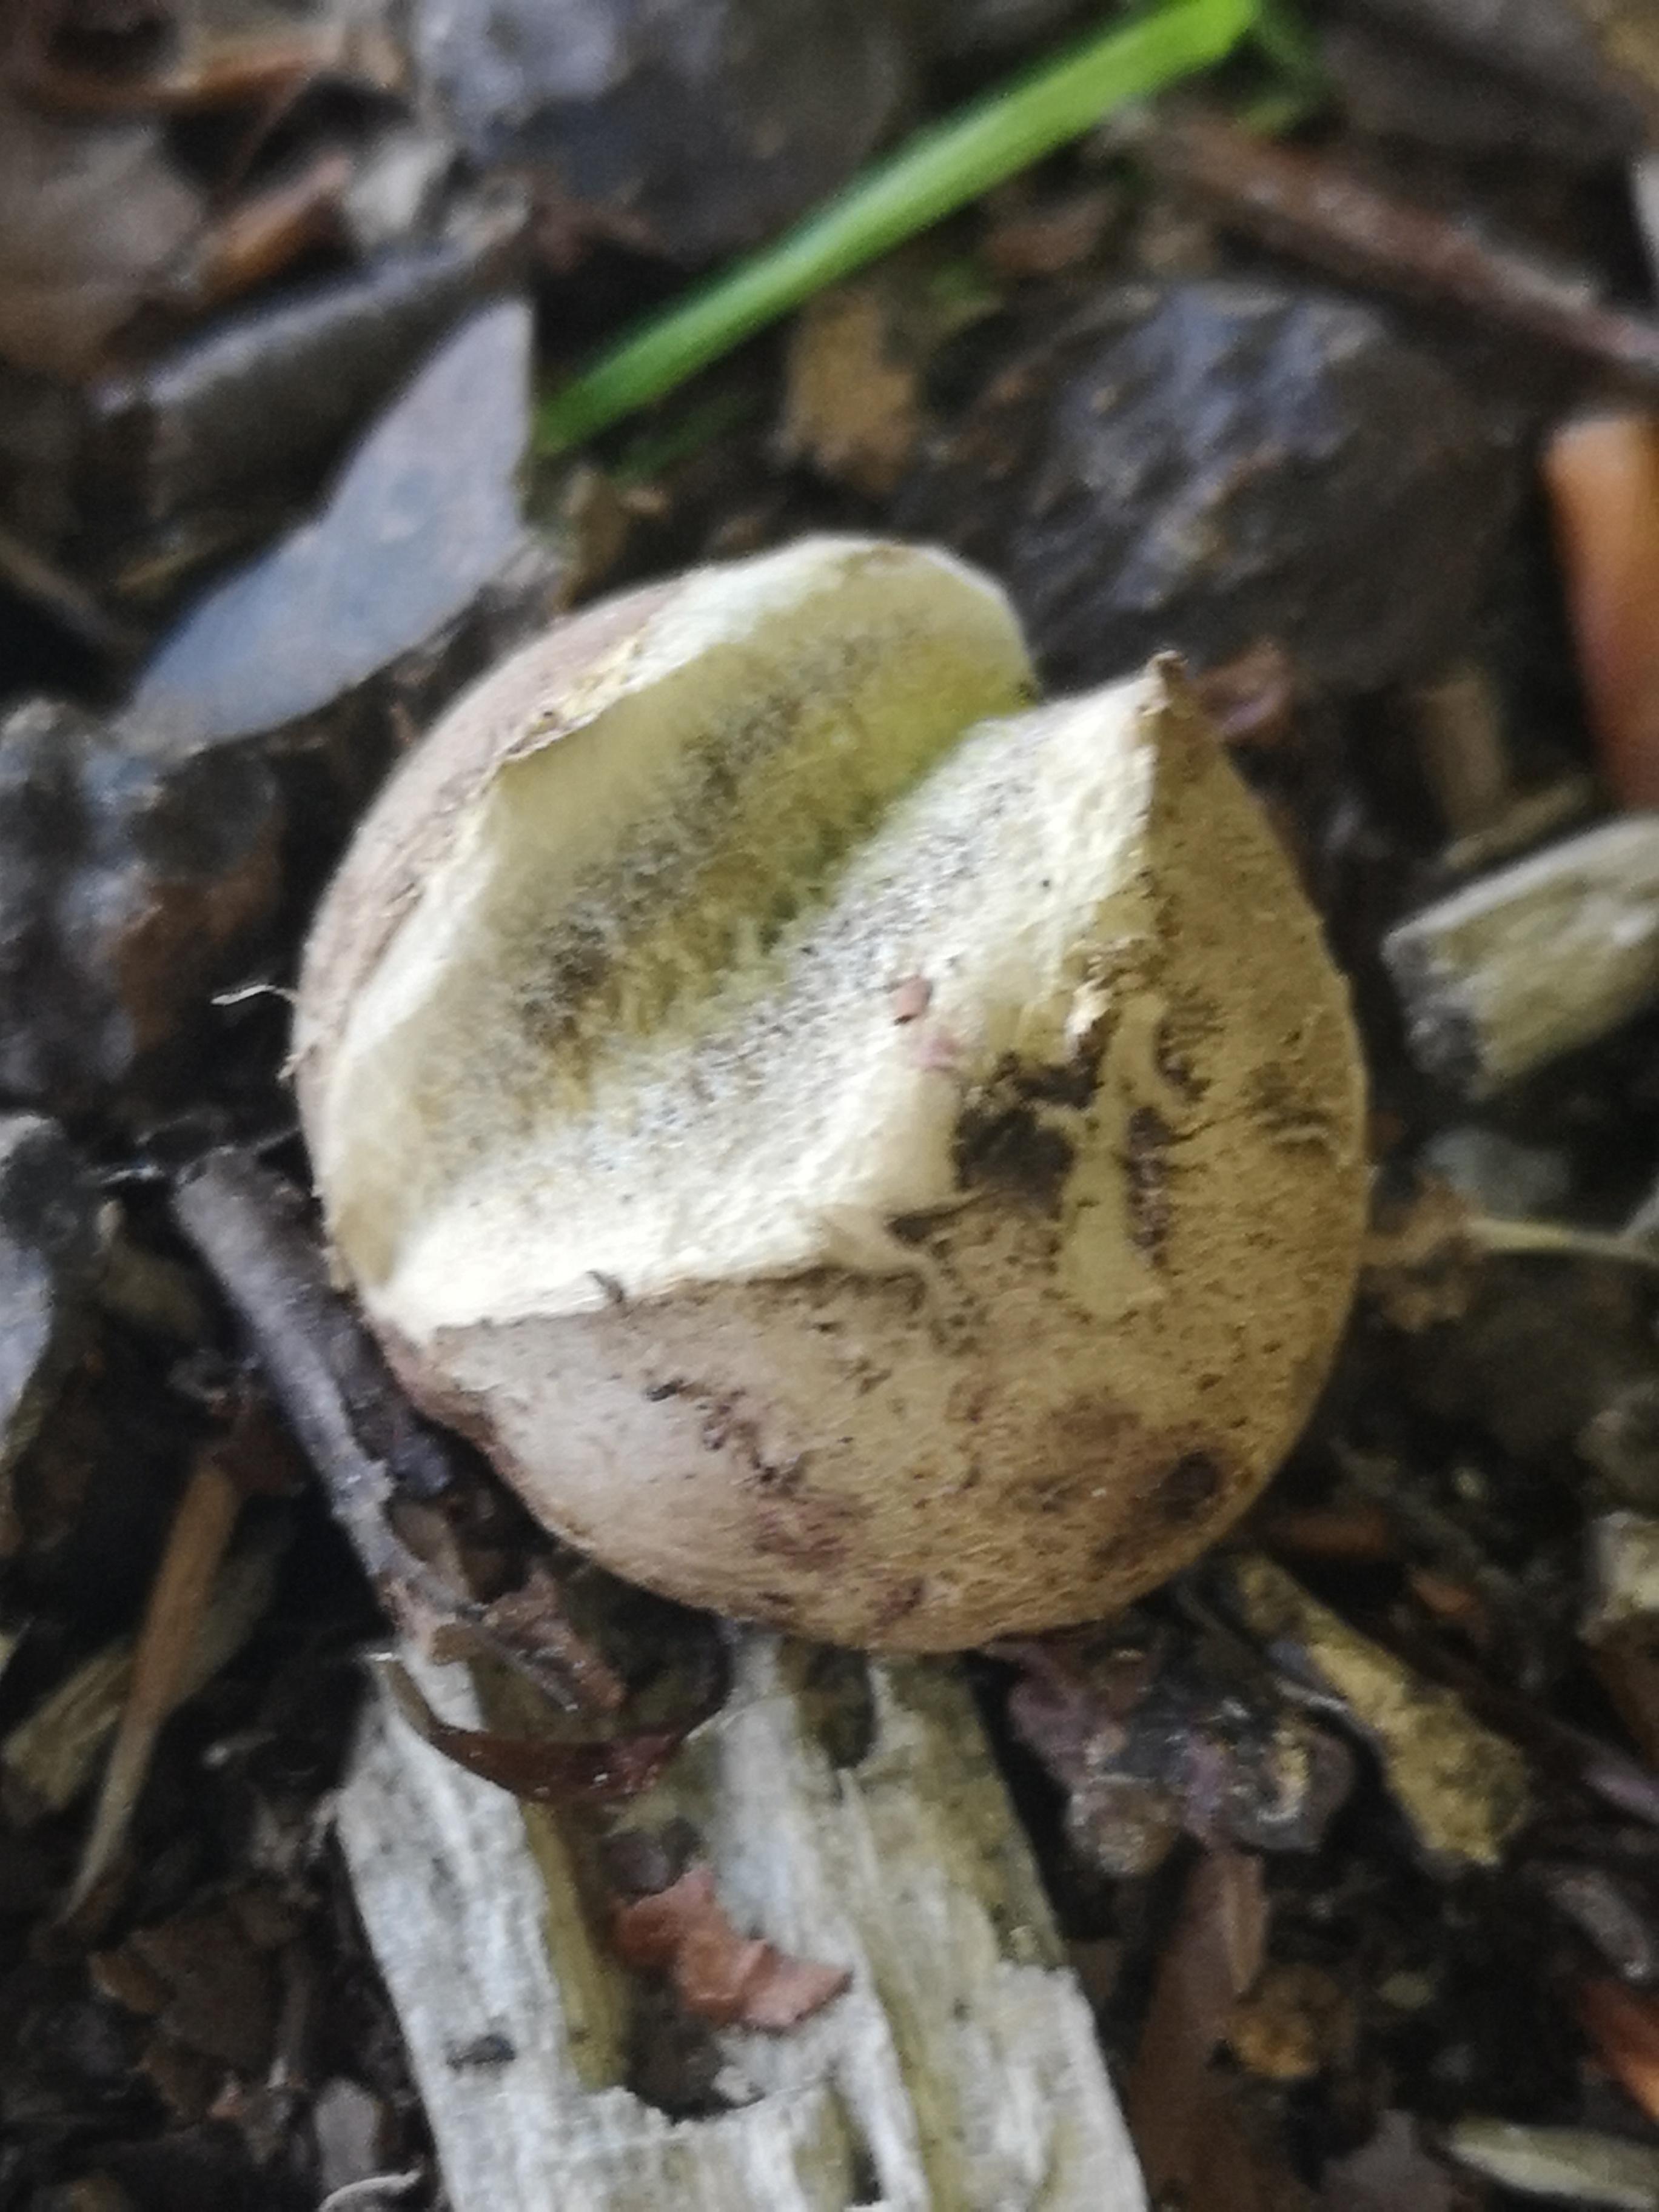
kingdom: Fungi
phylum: Basidiomycota
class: Agaricomycetes
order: Boletales
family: Sclerodermataceae
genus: Scleroderma
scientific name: Scleroderma
